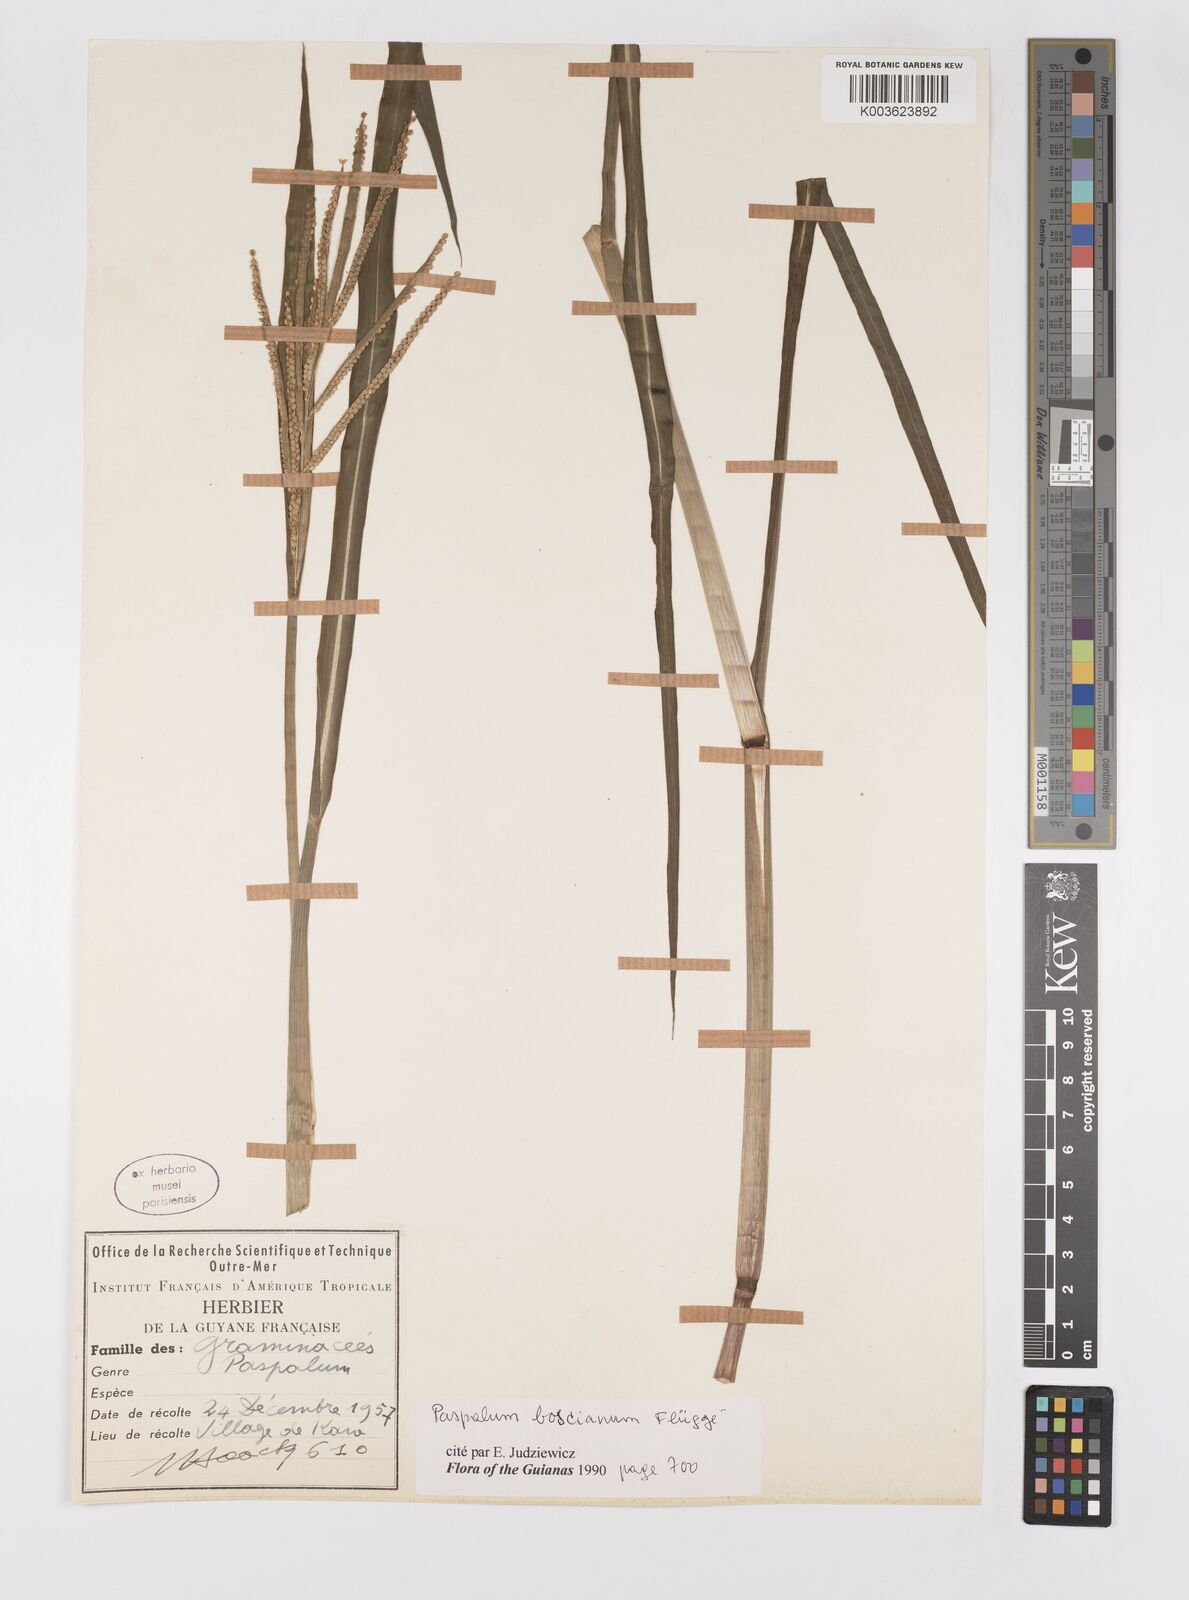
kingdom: Plantae
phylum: Tracheophyta
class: Liliopsida
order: Poales
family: Poaceae
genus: Paspalum
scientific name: Paspalum scrobiculatum
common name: Kodo millet
